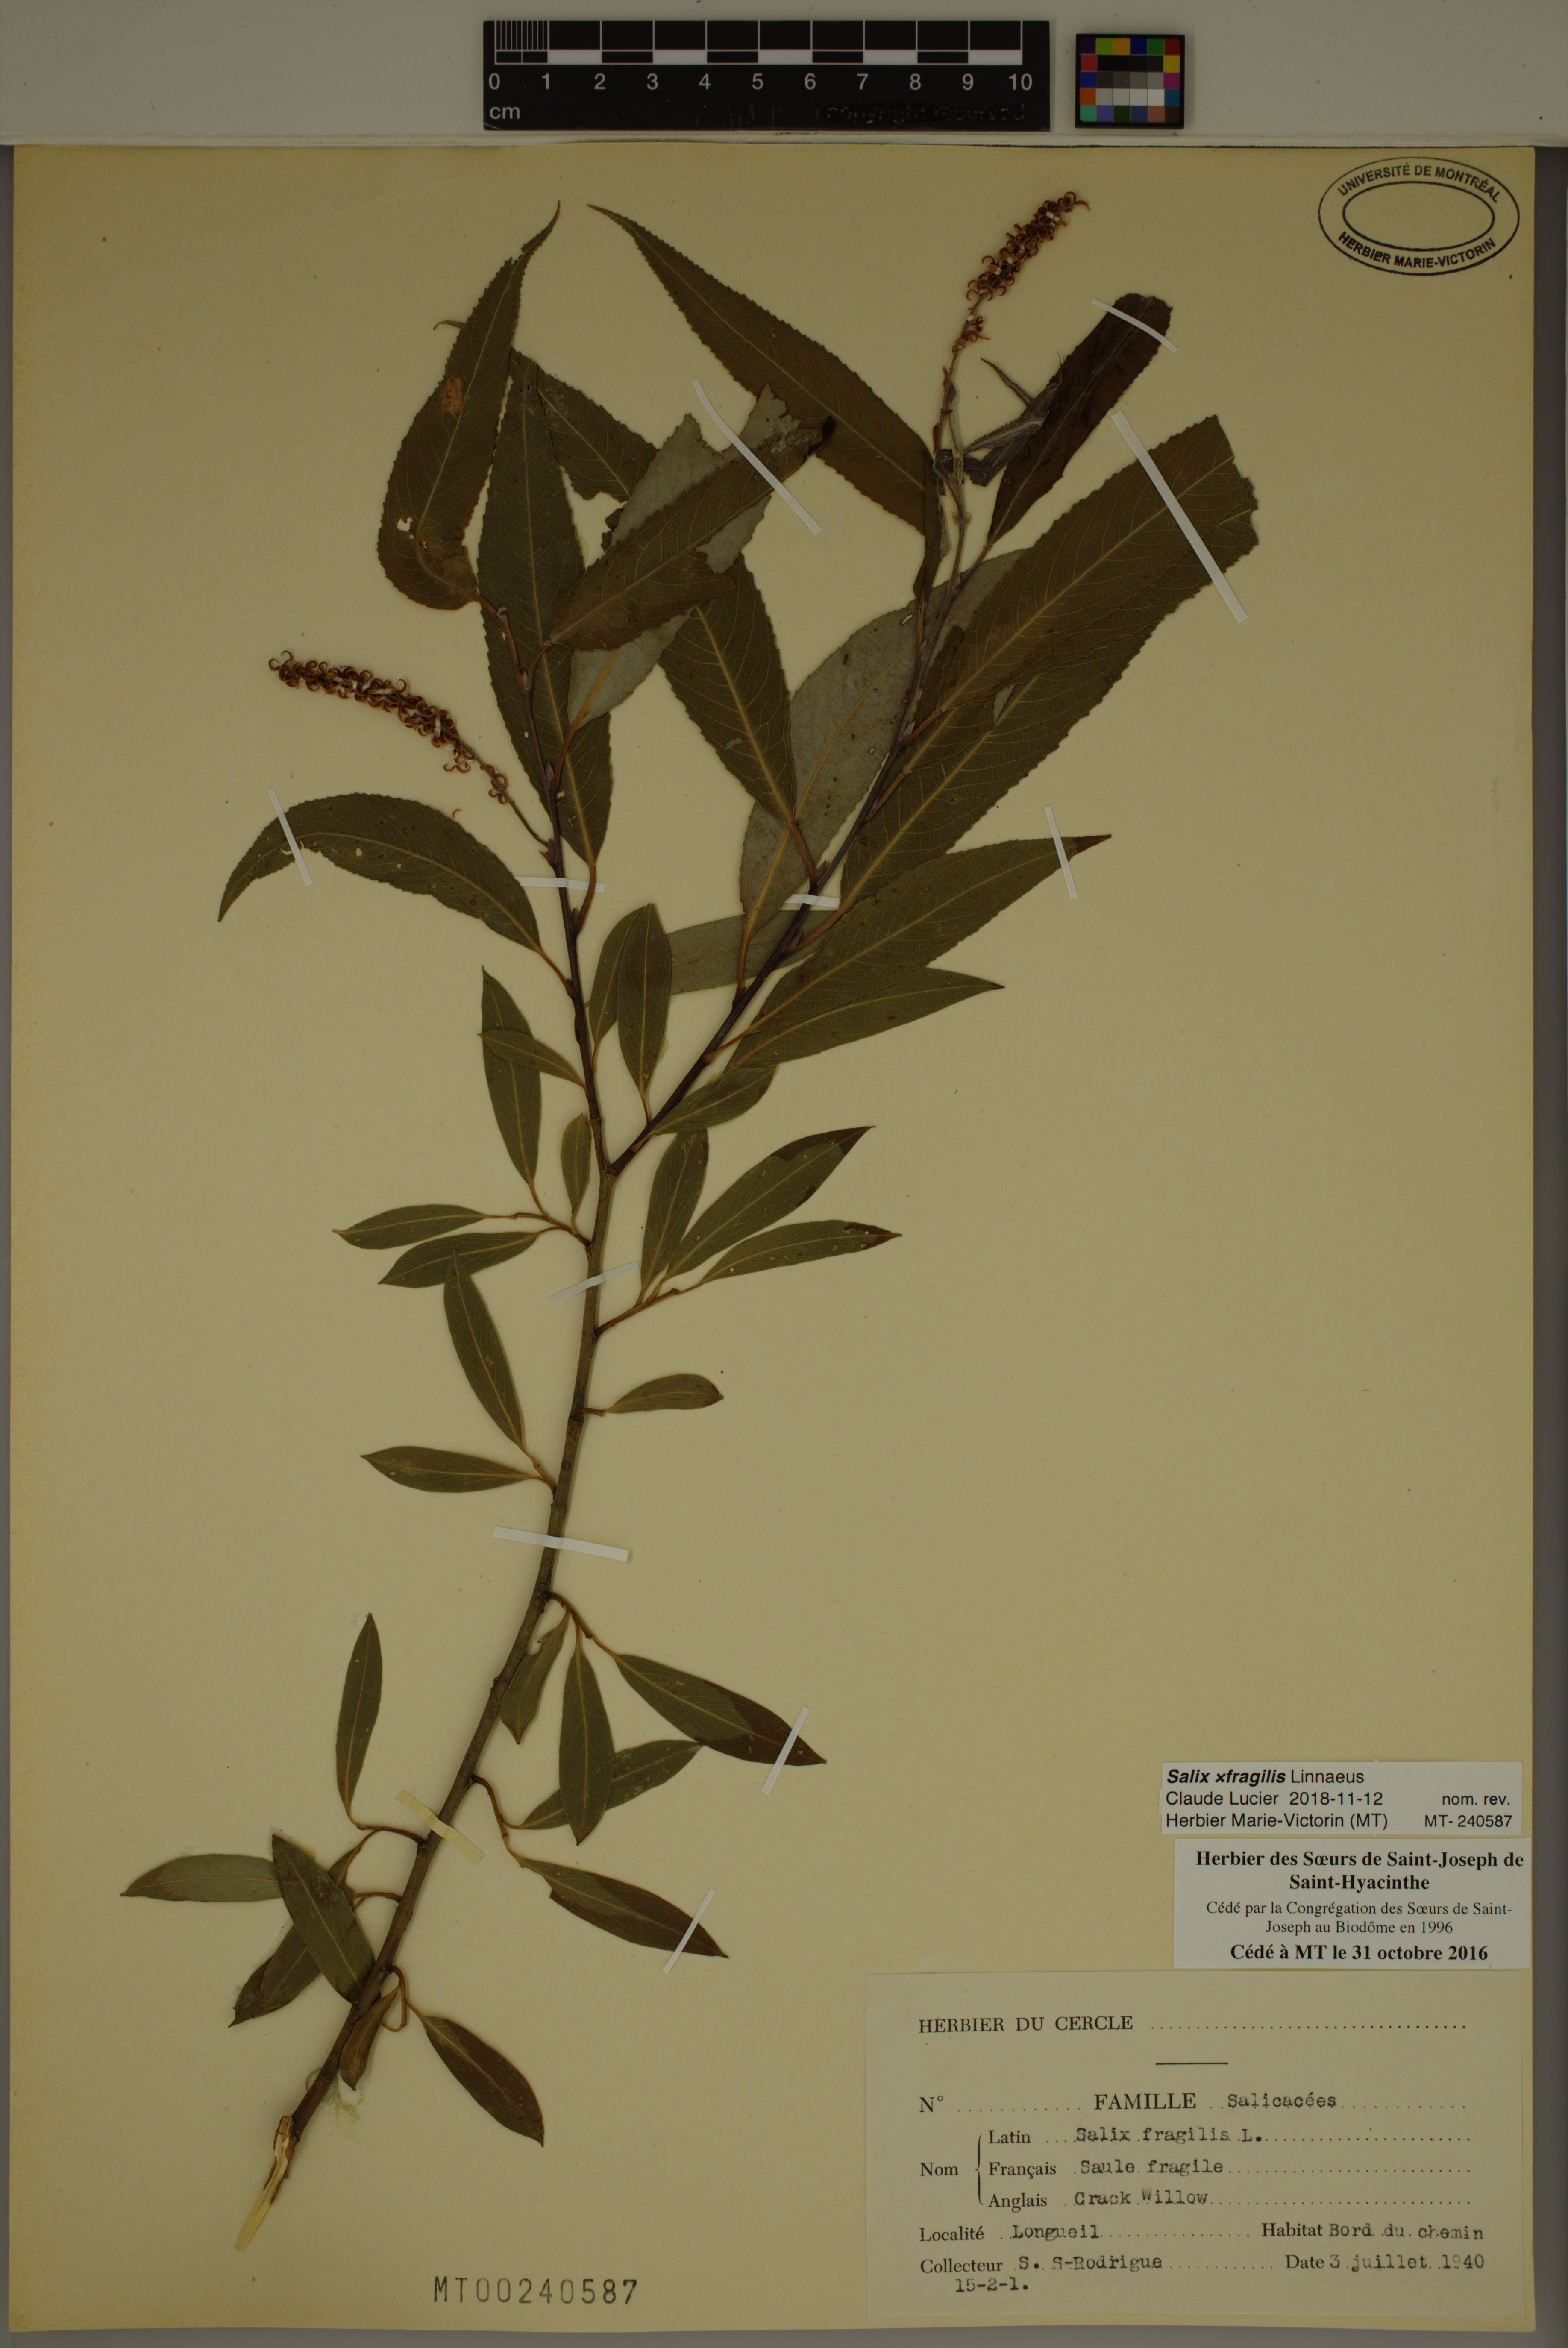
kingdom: Plantae
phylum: Tracheophyta
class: Magnoliopsida
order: Malpighiales
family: Salicaceae
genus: Salix
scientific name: Salix fragilis
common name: Crack willow
